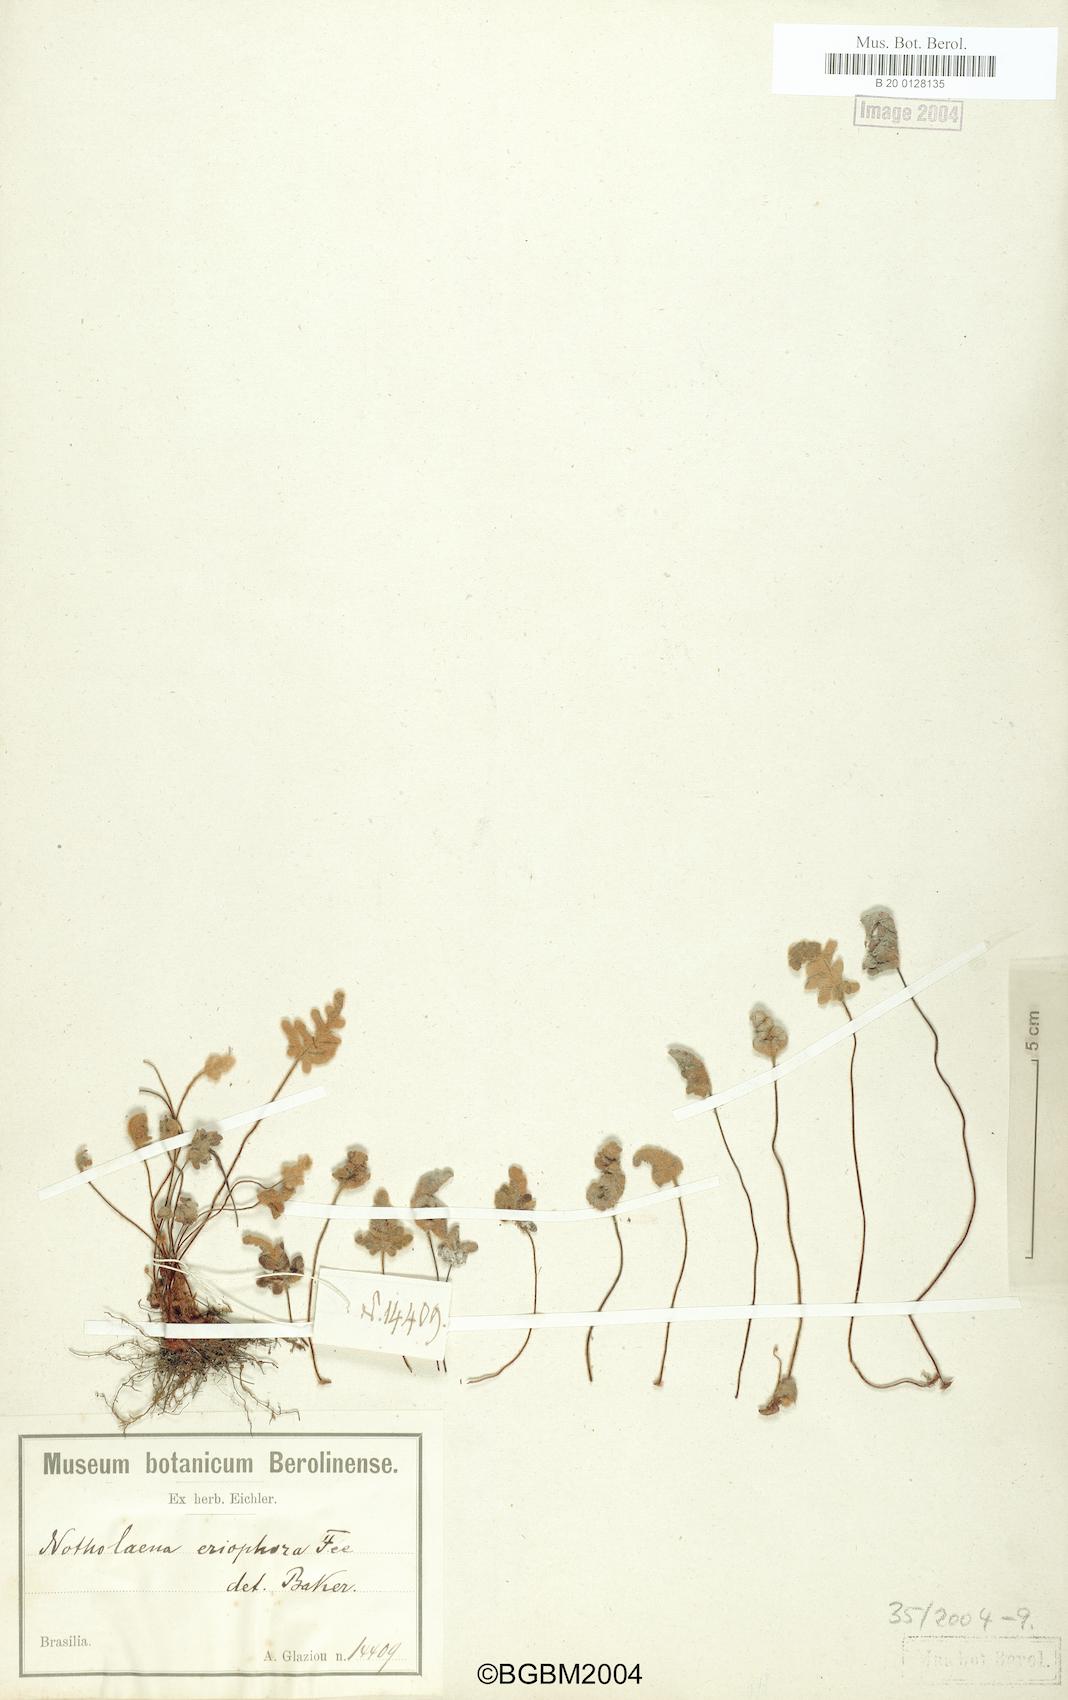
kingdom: Plantae
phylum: Tracheophyta
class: Polypodiopsida
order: Polypodiales
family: Pteridaceae
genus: Mineirella
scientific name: Mineirella eriophora
